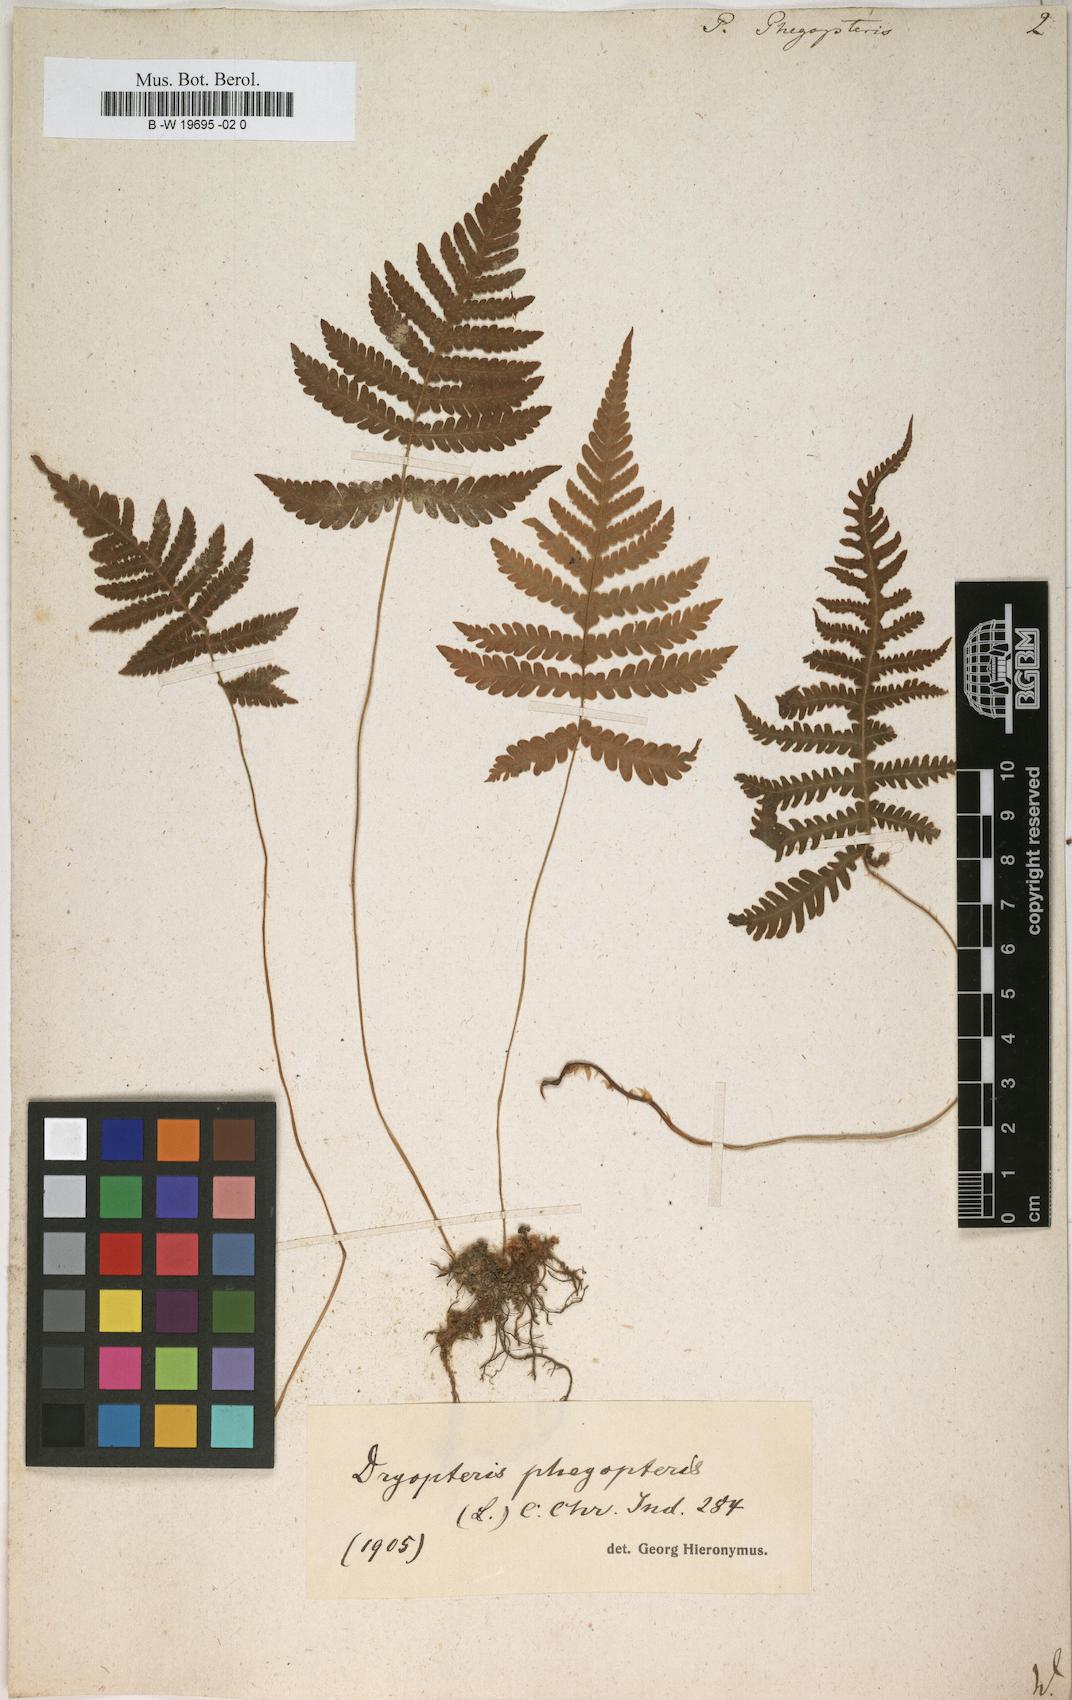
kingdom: Plantae
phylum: Tracheophyta
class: Polypodiopsida
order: Polypodiales
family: Thelypteridaceae
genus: Phegopteris
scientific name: Phegopteris connectilis
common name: Beech fern
